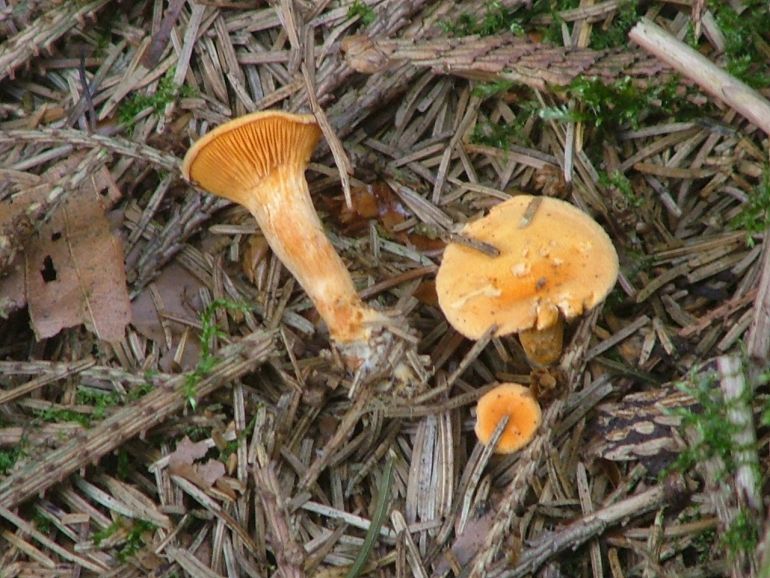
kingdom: Fungi
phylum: Basidiomycota
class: Agaricomycetes
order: Boletales
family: Hygrophoropsidaceae
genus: Hygrophoropsis
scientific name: Hygrophoropsis aurantiaca
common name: almindelig orangekantarel
